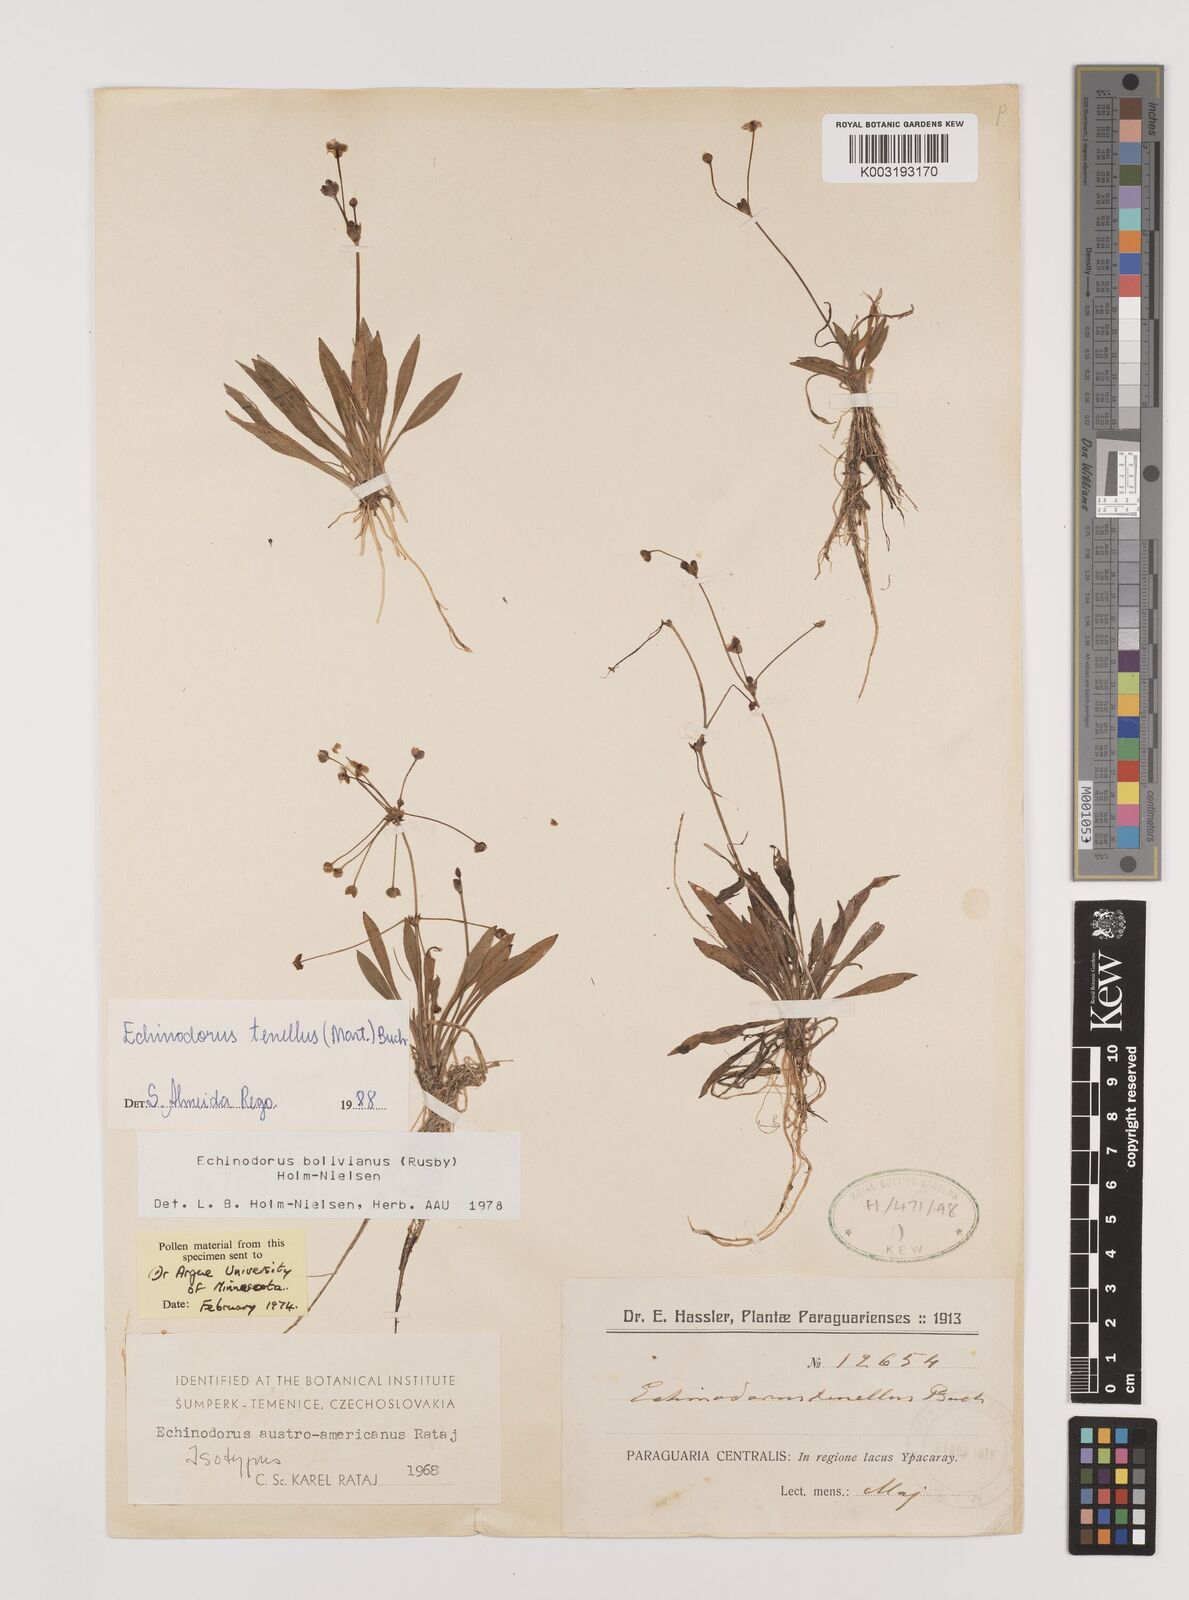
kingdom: Plantae
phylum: Tracheophyta
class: Liliopsida
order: Alismatales
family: Alismataceae
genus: Helanthium
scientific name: Helanthium tenellum
